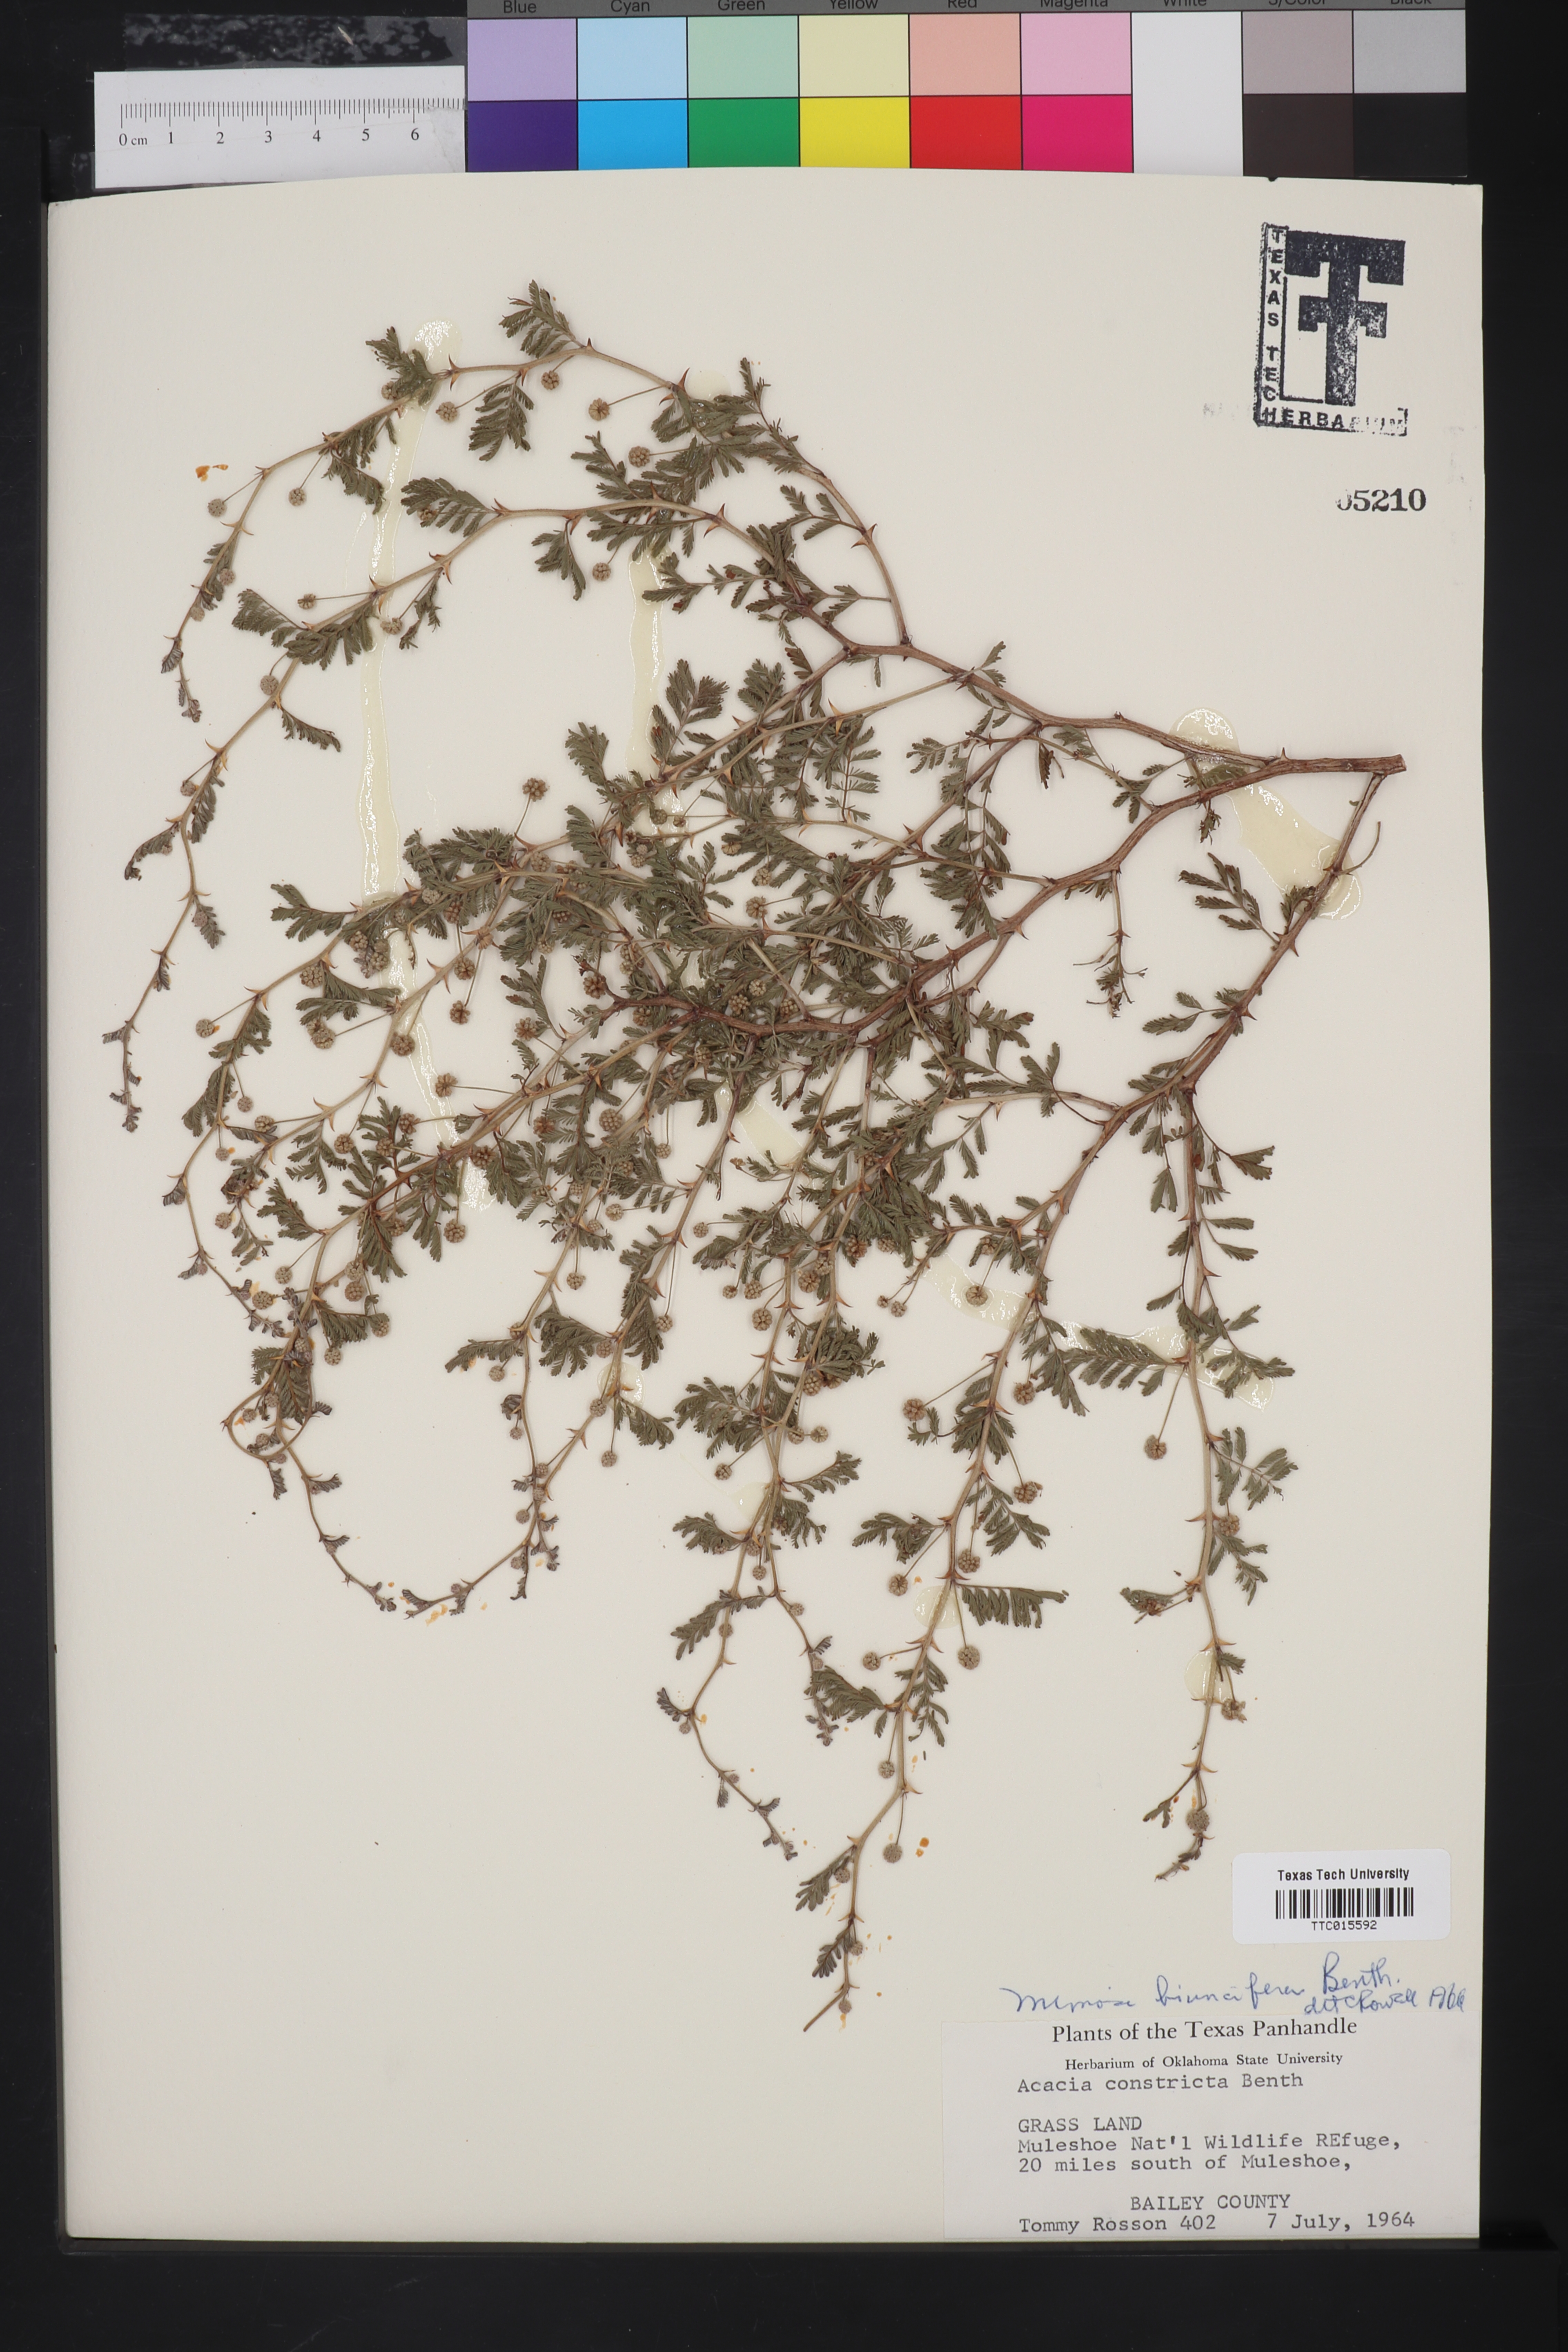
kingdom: Plantae
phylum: Tracheophyta
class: Magnoliopsida
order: Fabales
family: Fabaceae
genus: Mimosa
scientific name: Mimosa biuncifera
